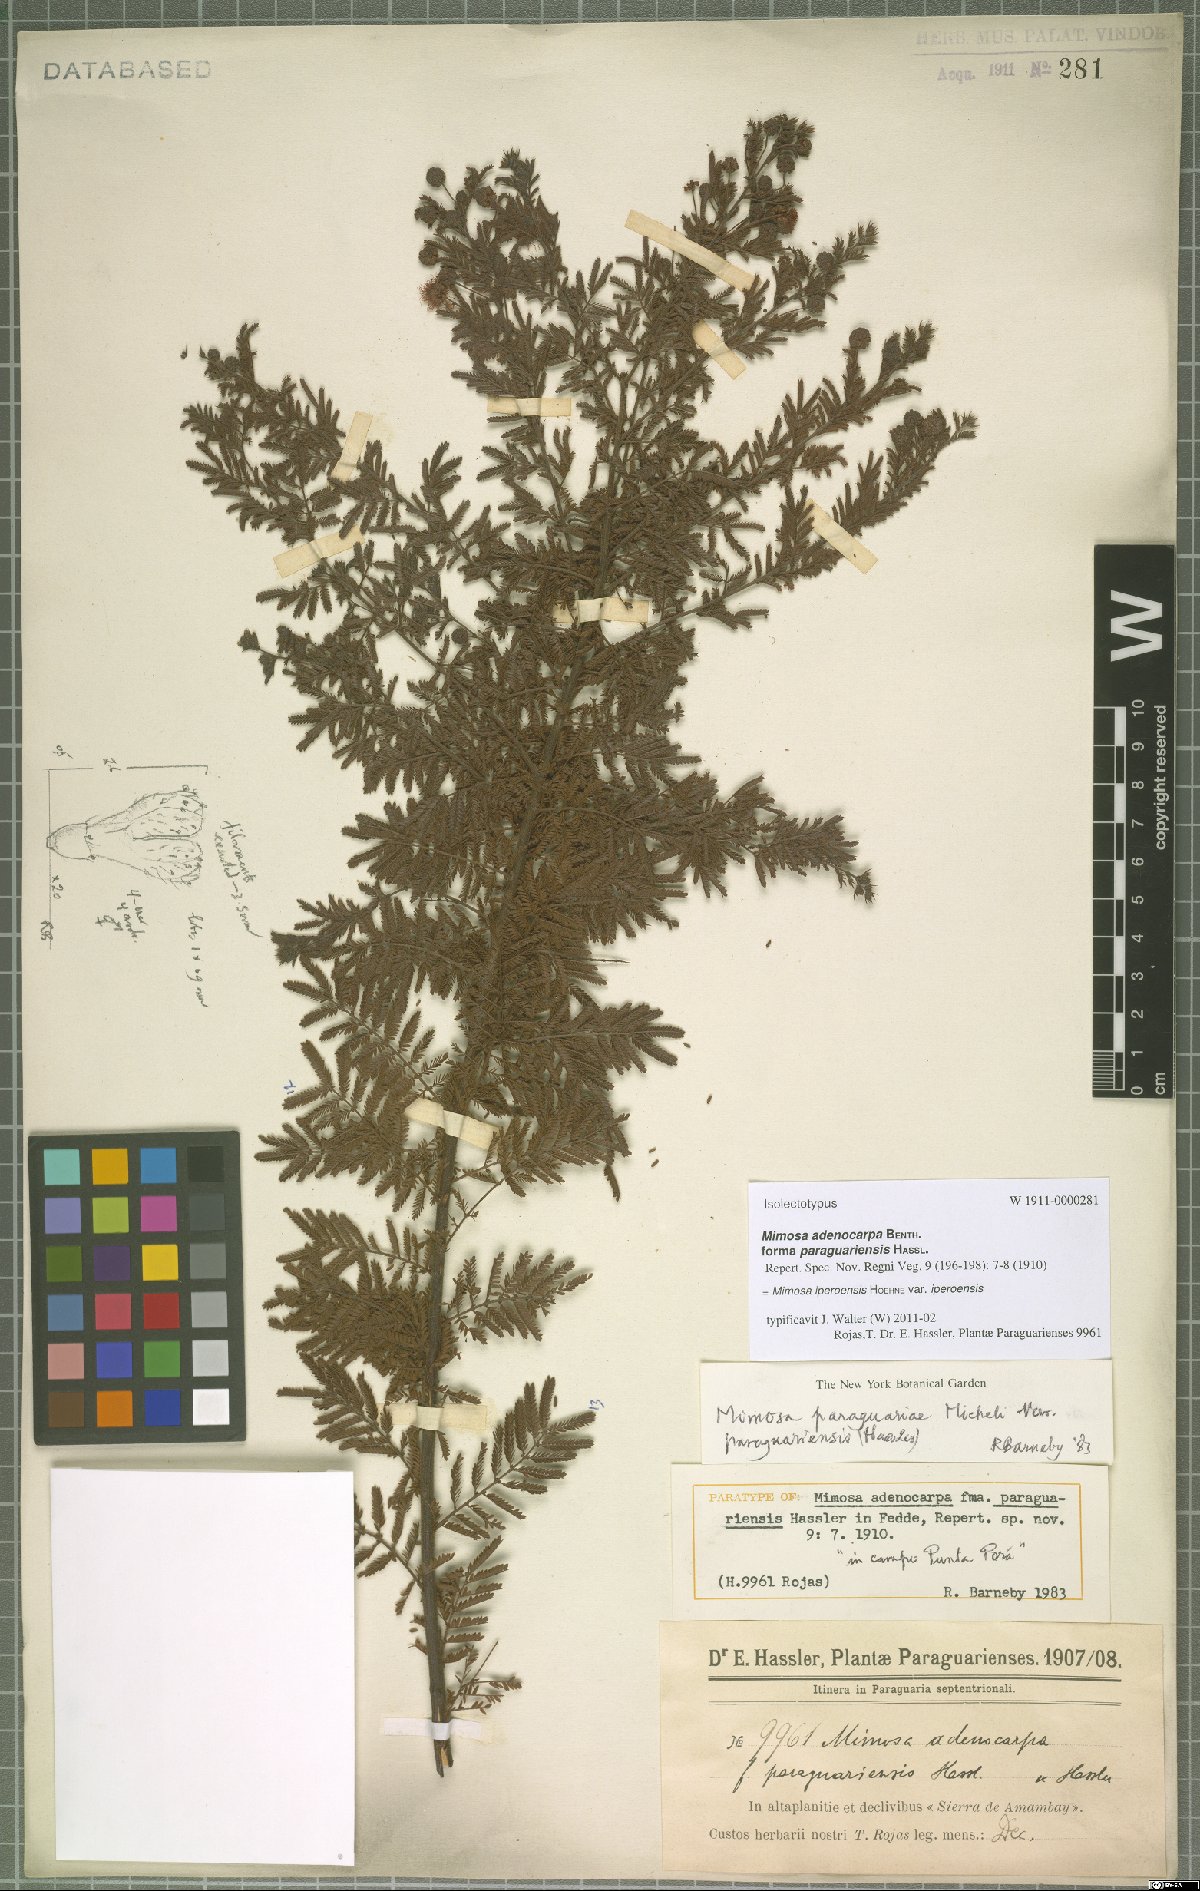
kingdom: Plantae
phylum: Tracheophyta
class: Magnoliopsida
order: Fabales
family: Fabaceae
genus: Mimosa
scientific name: Mimosa iperoensis
